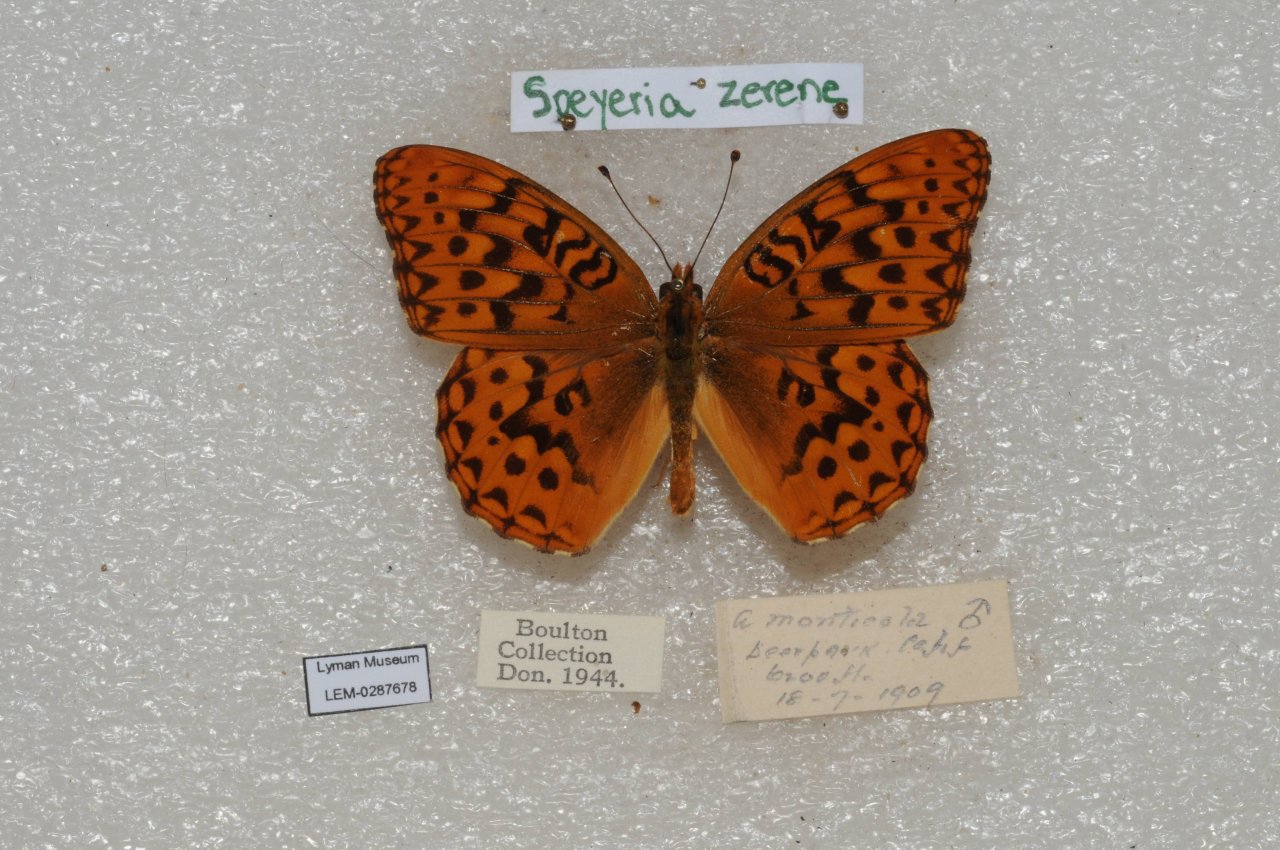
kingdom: Animalia
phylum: Arthropoda
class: Insecta
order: Lepidoptera
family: Nymphalidae
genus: Speyeria
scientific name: Speyeria zerene
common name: Zerene Fritillary
